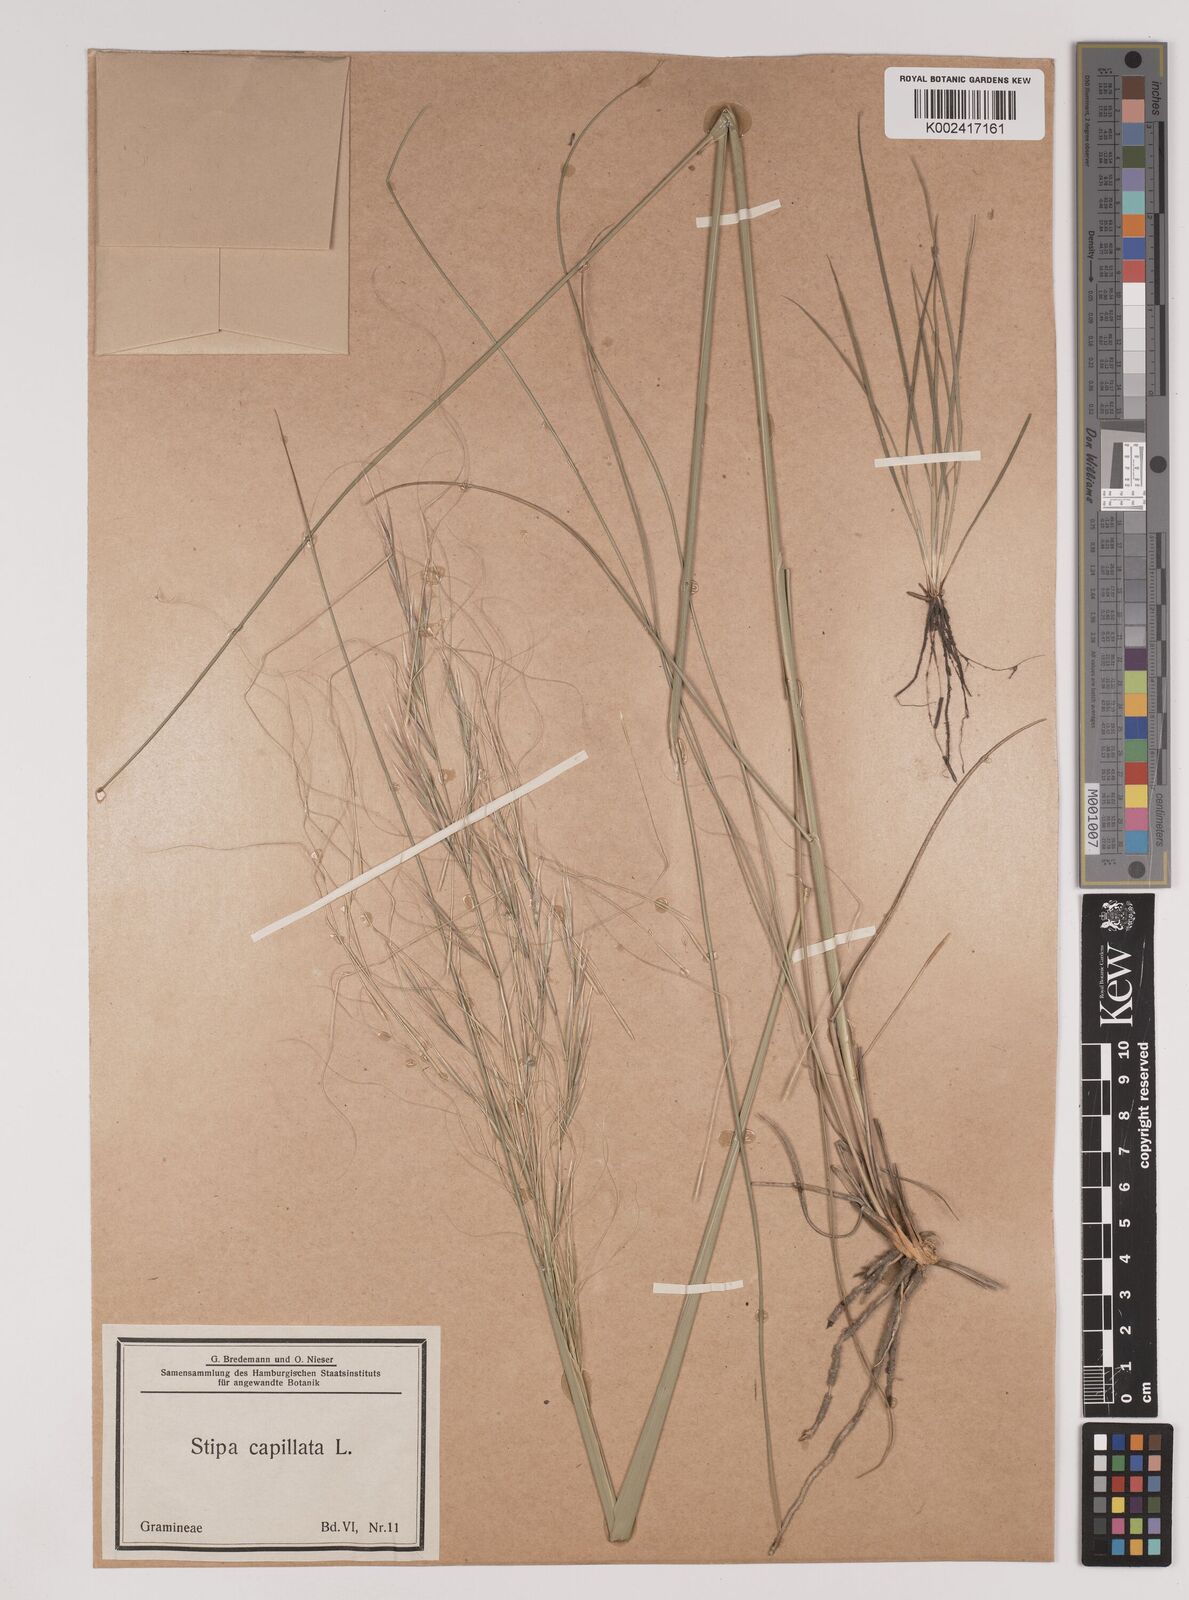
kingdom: Plantae
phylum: Tracheophyta
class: Liliopsida
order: Poales
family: Poaceae
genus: Stipa
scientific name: Stipa capillata
